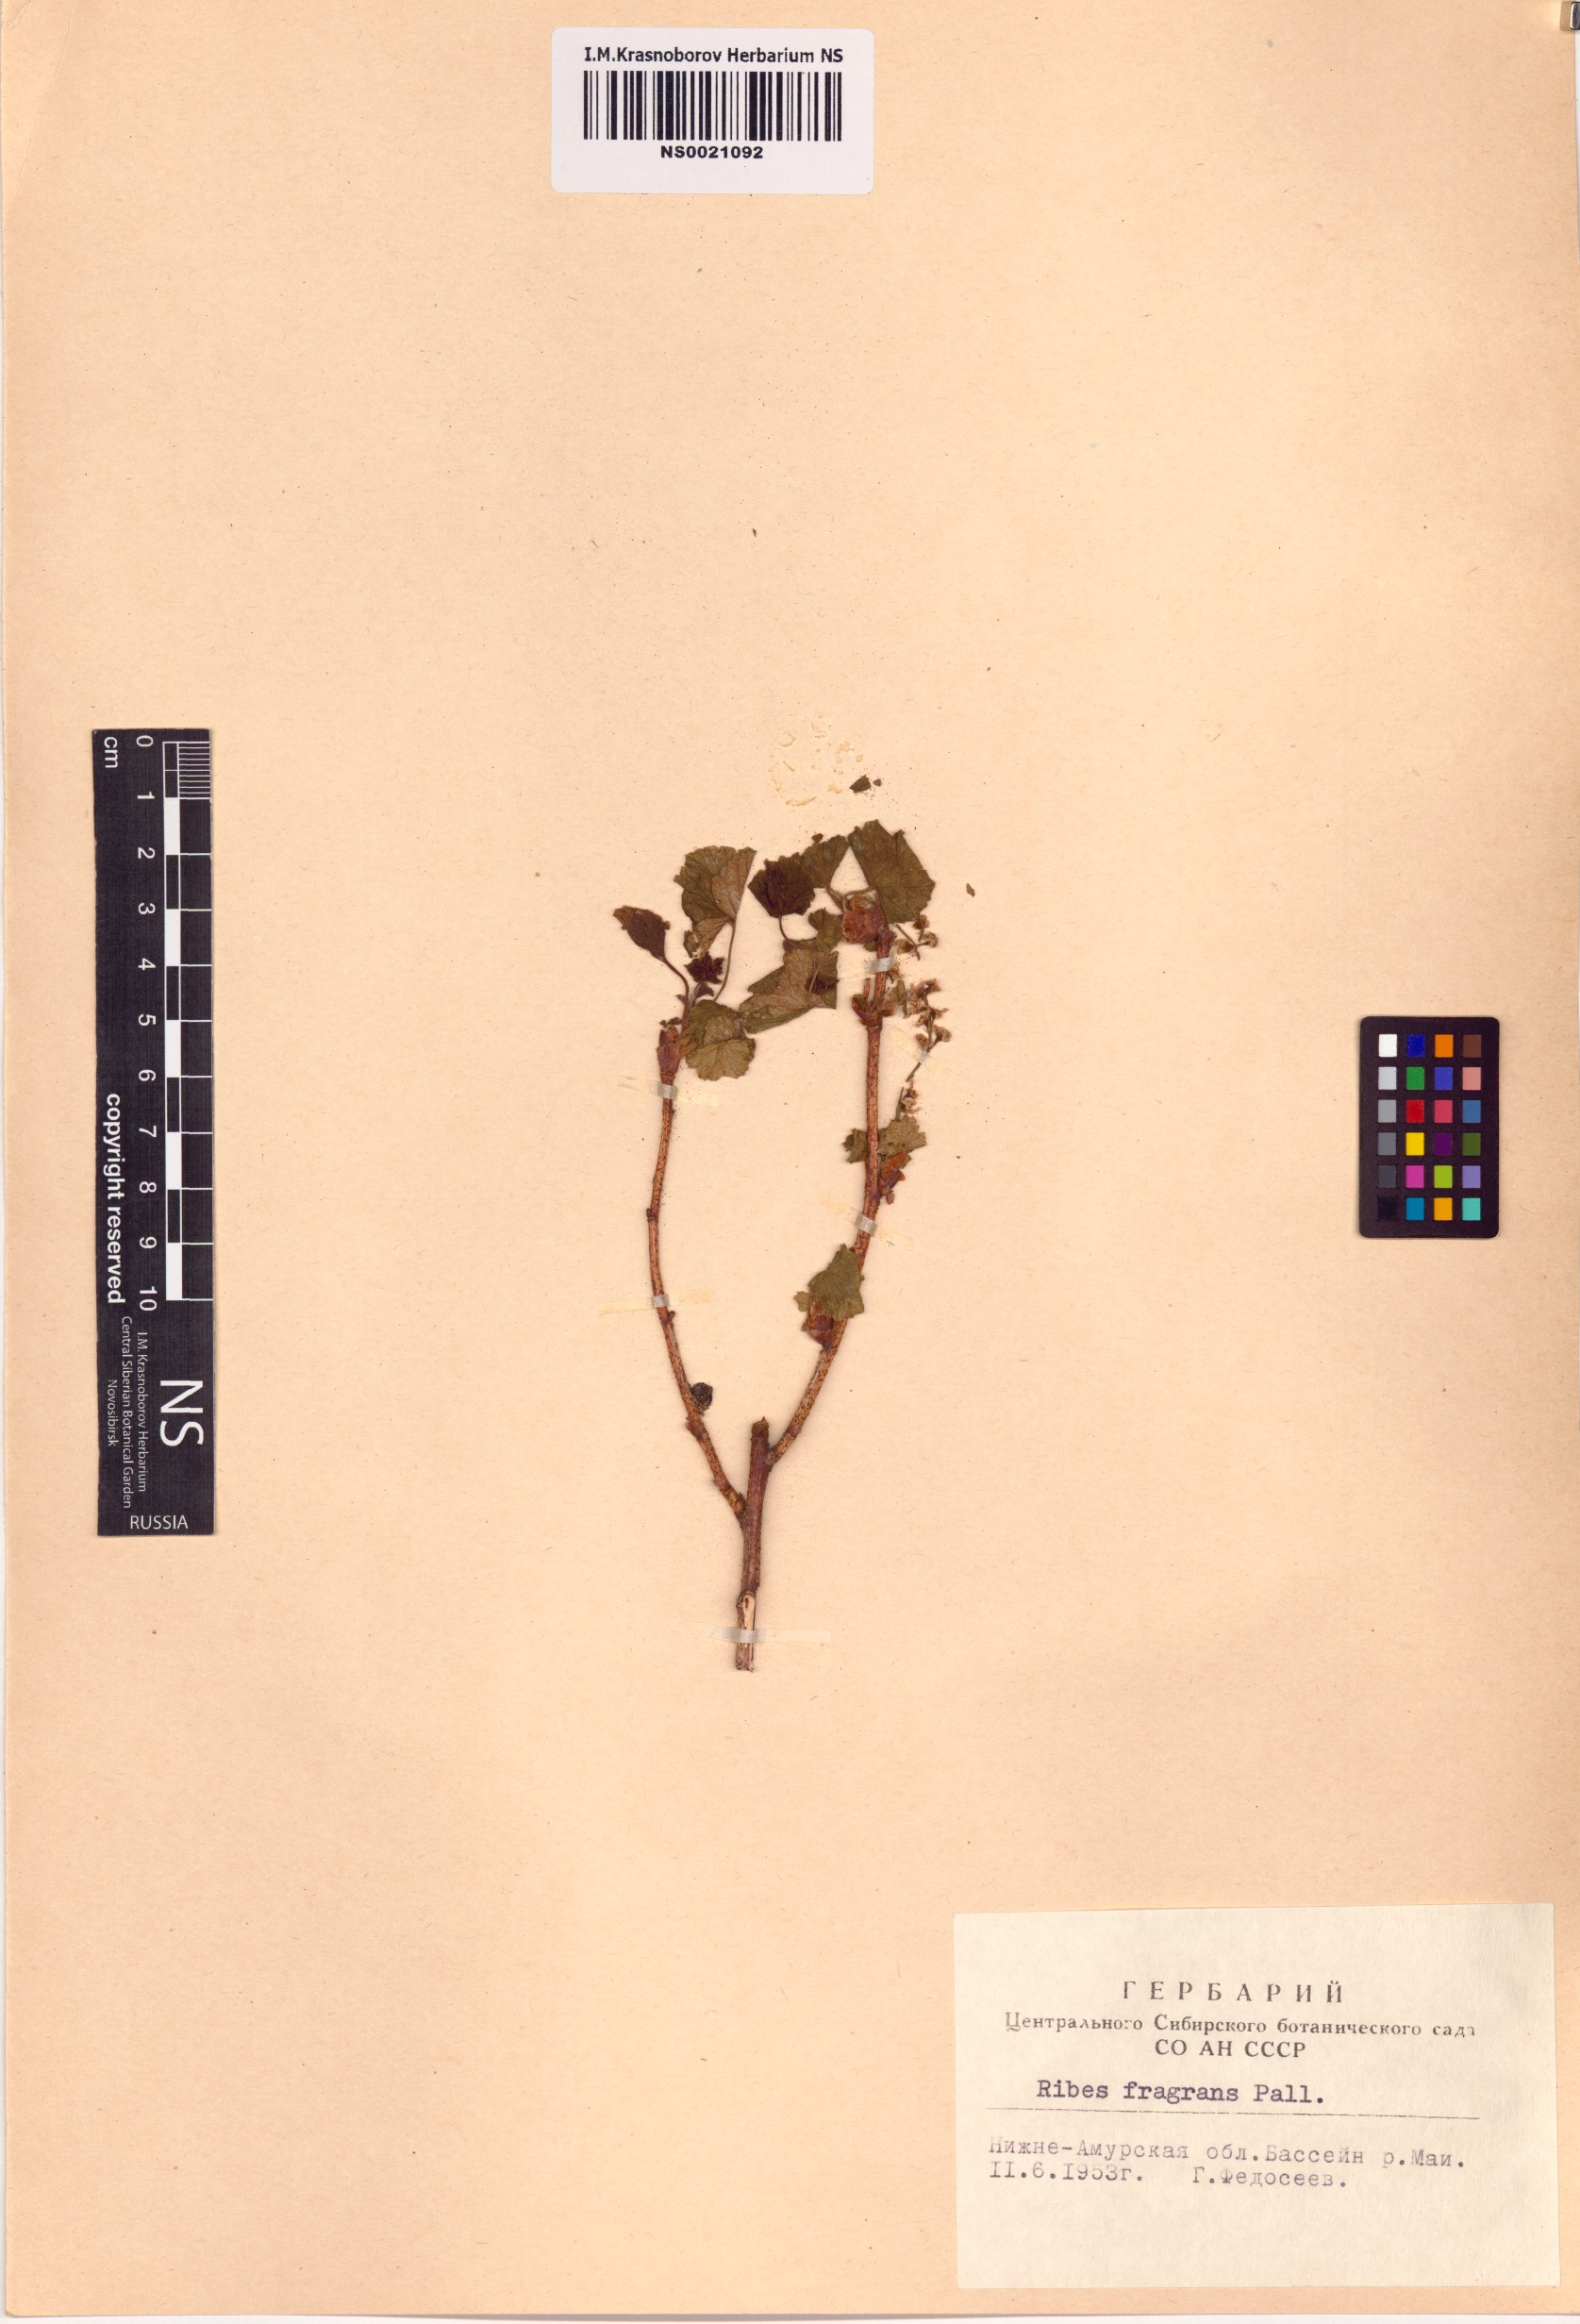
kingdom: Plantae
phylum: Tracheophyta
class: Magnoliopsida
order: Saxifragales
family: Grossulariaceae
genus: Ribes
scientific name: Ribes fragrans
